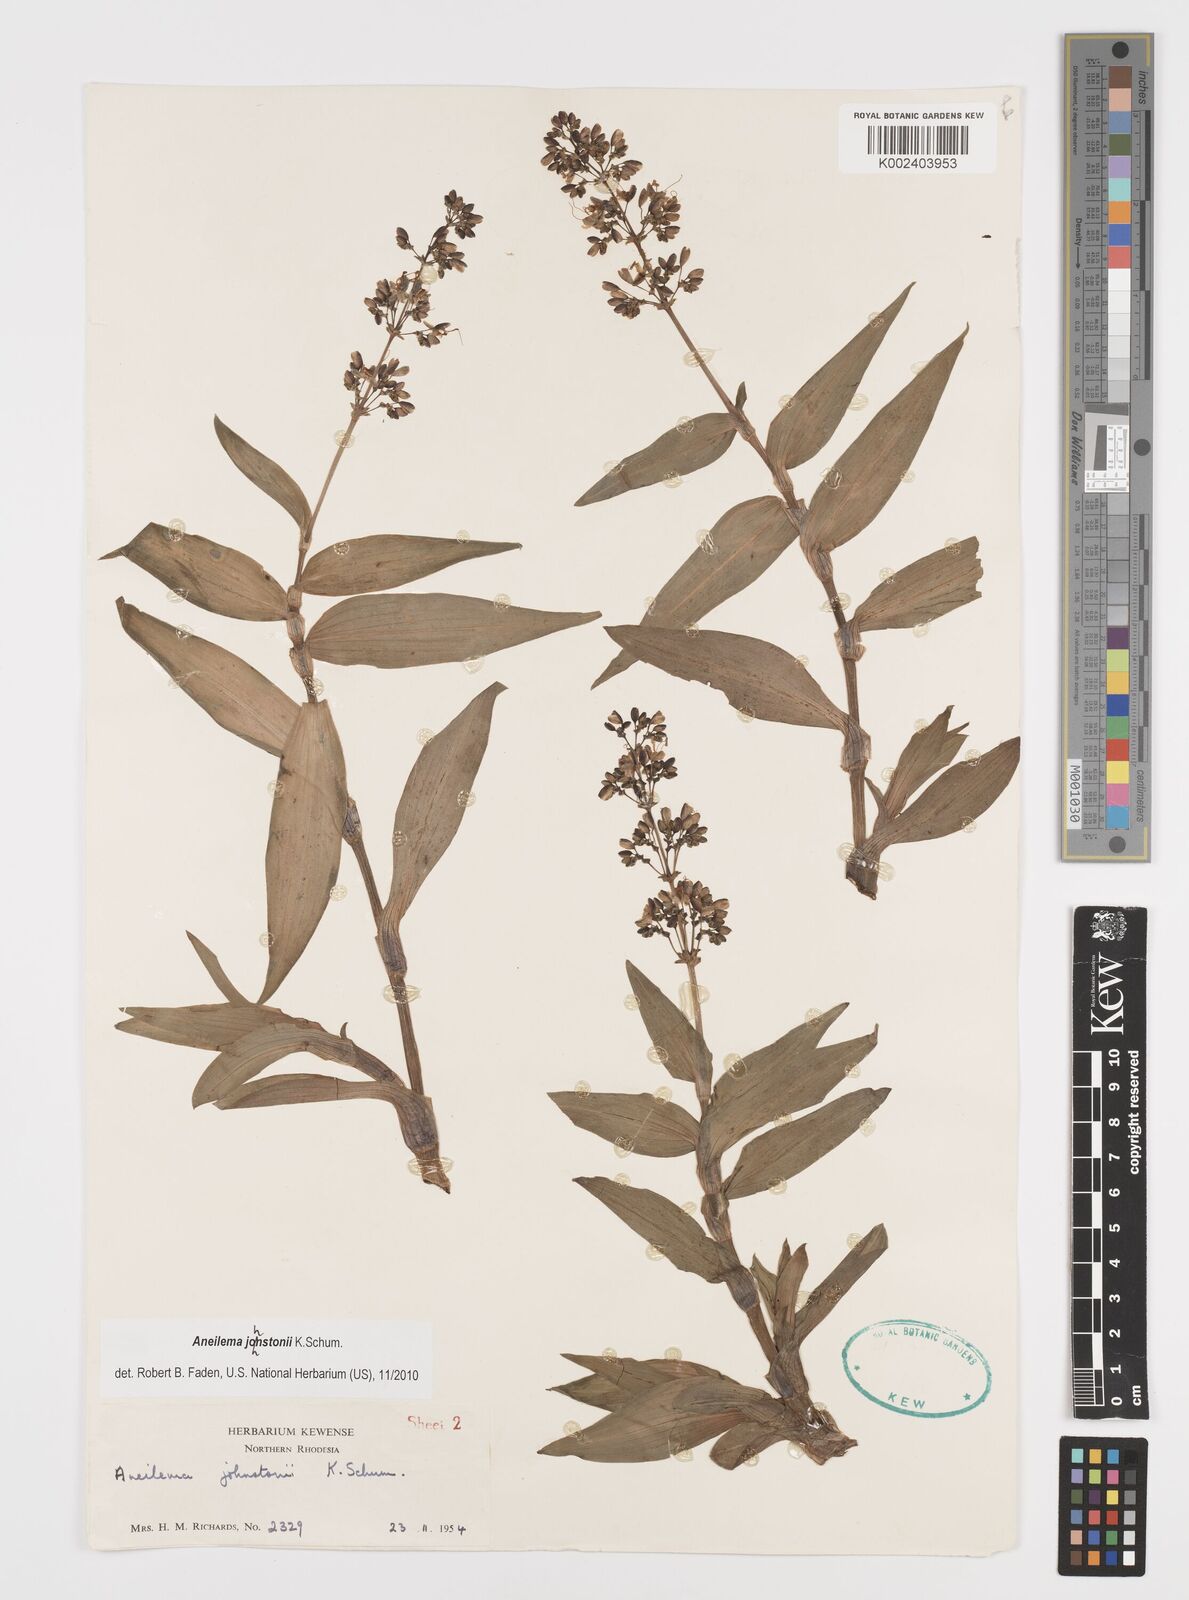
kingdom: Plantae
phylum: Tracheophyta
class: Liliopsida
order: Commelinales
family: Commelinaceae
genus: Aneilema
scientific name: Aneilema johnstonii
